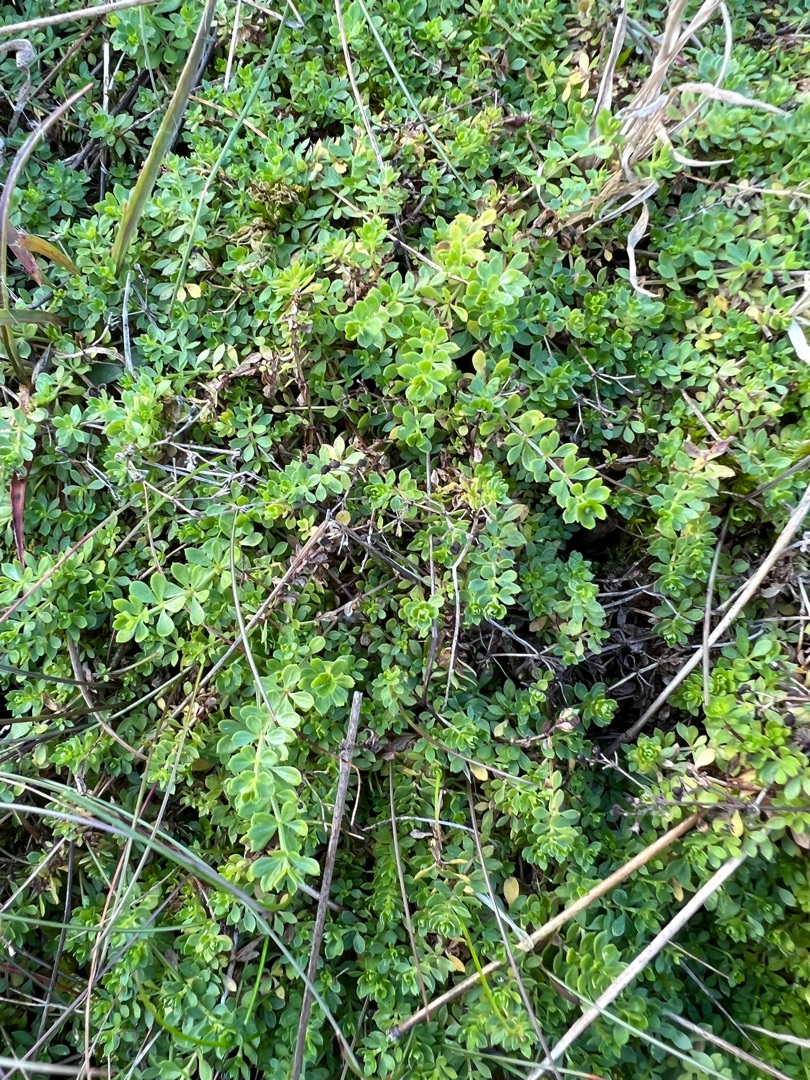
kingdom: Plantae
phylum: Tracheophyta
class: Magnoliopsida
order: Gentianales
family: Rubiaceae
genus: Galium
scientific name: Galium saxatile
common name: Lyng-snerre
